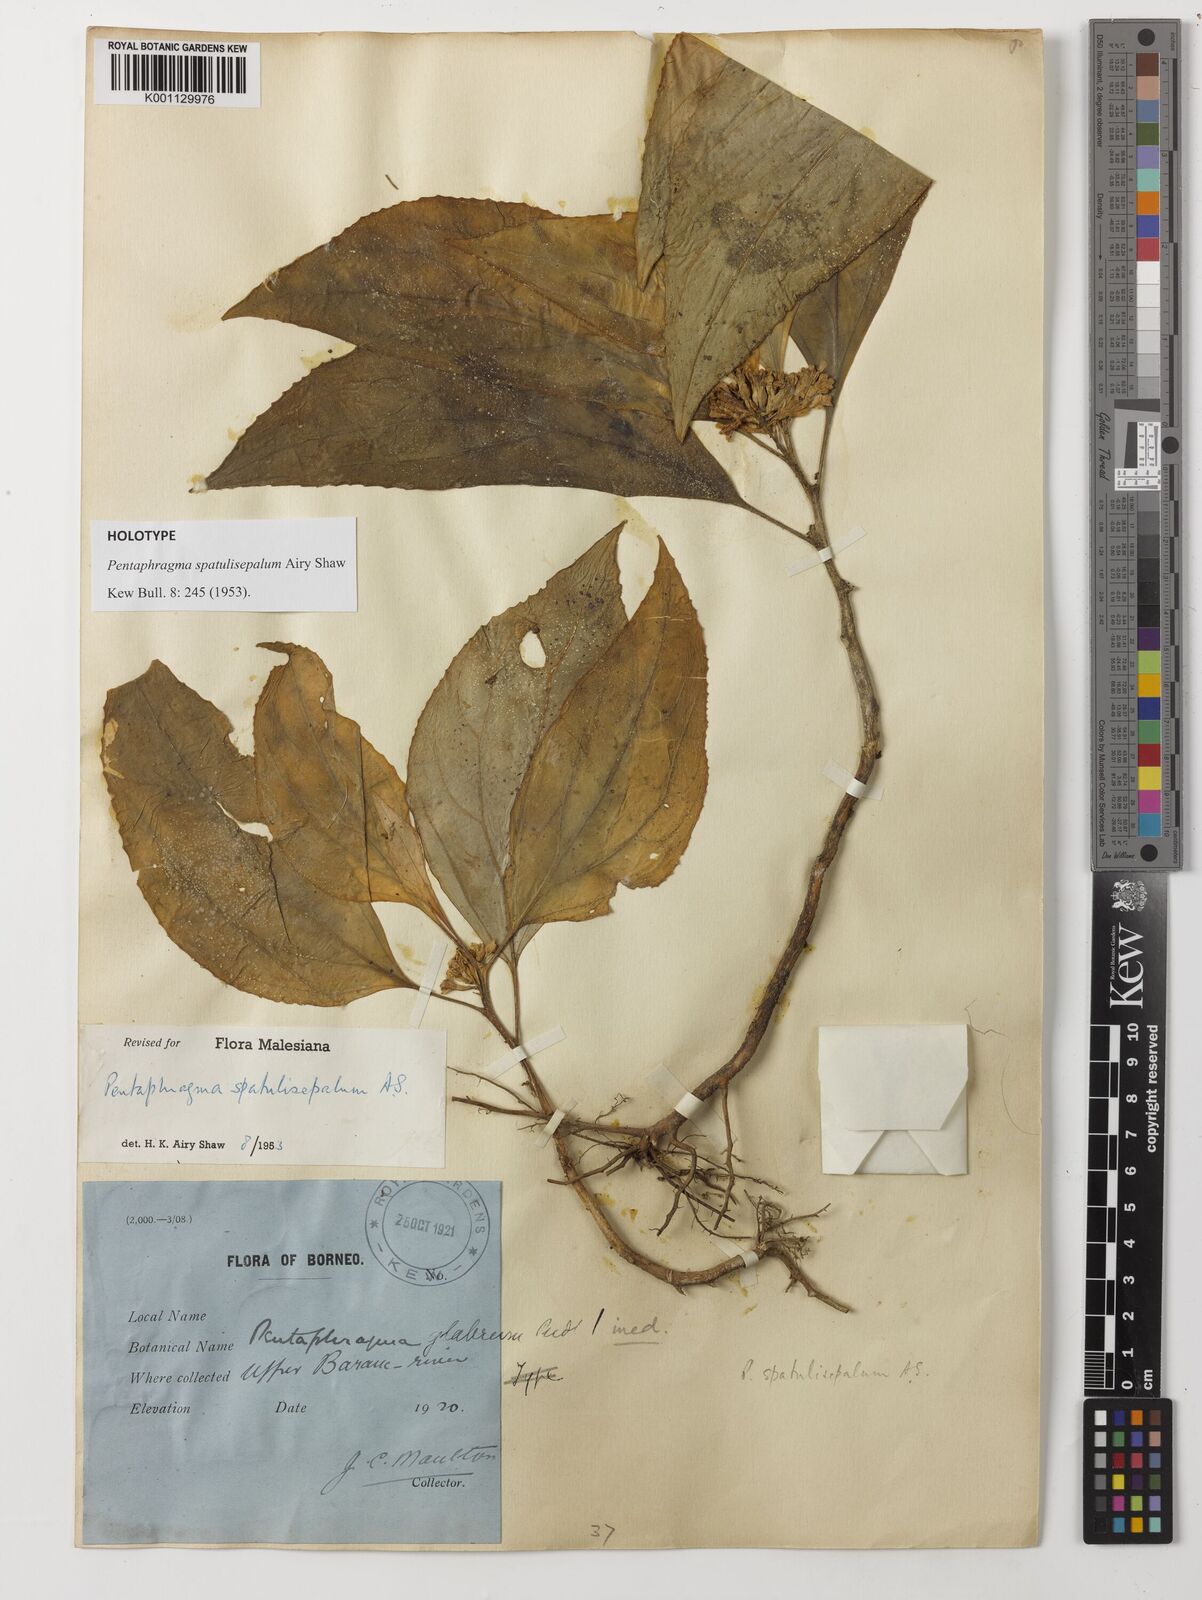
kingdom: Plantae
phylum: Tracheophyta
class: Magnoliopsida
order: Asterales
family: Pentaphragmataceae
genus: Pentaphragma
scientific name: Pentaphragma spatulisepalum
